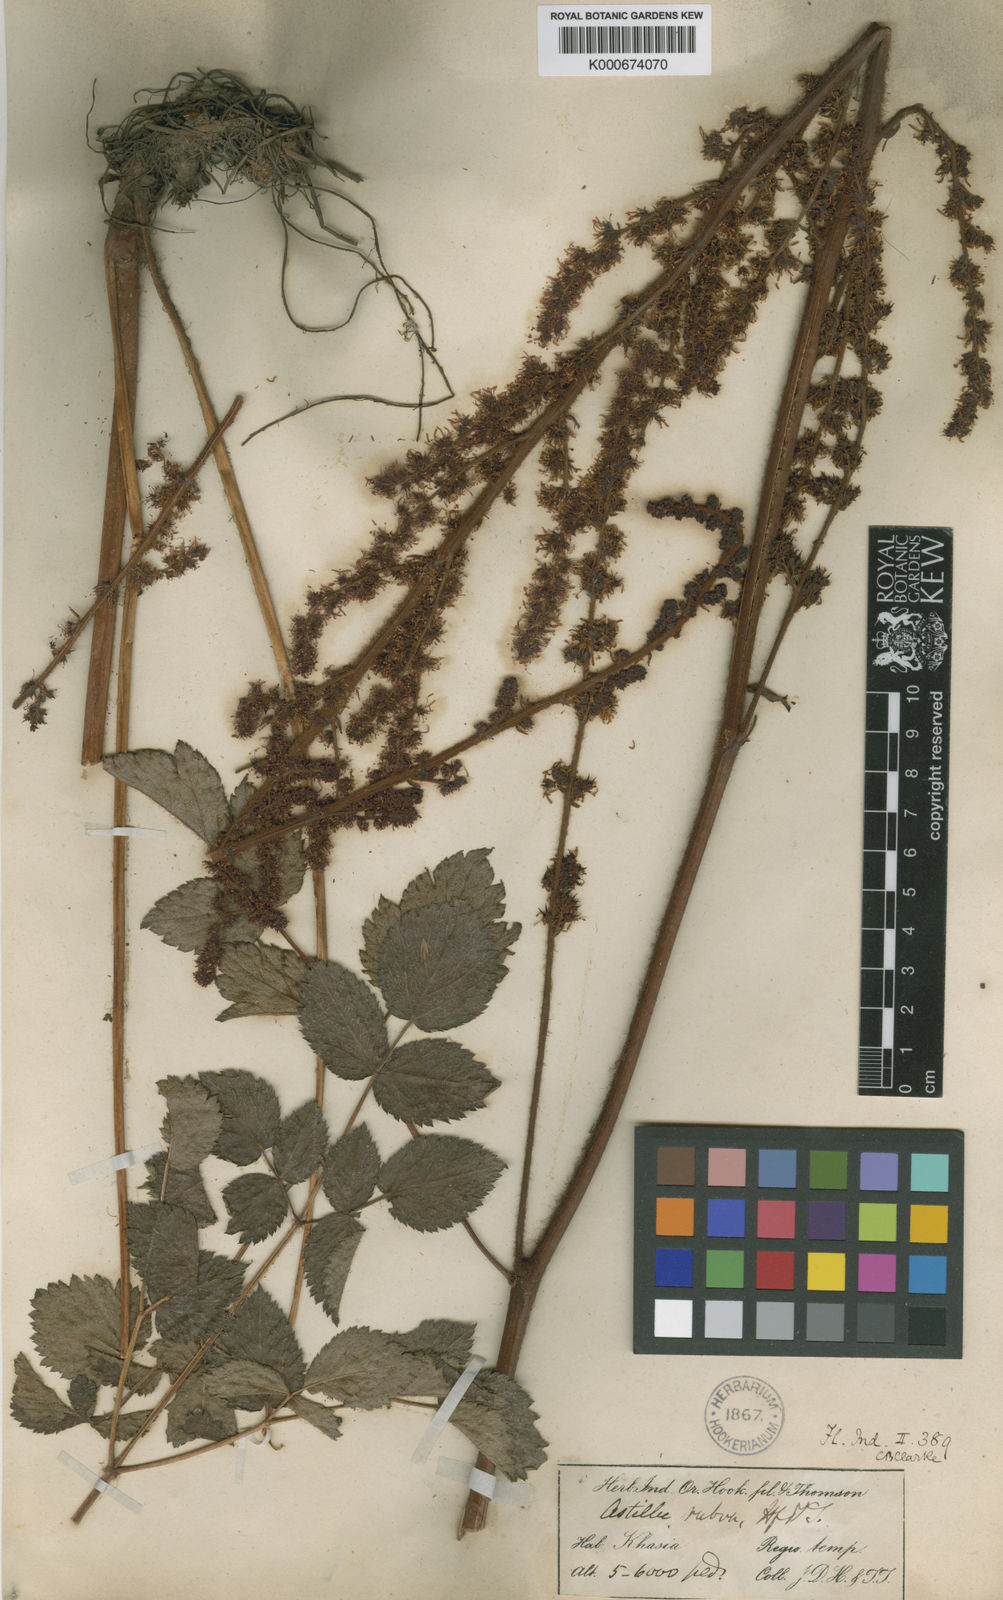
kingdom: Plantae
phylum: Tracheophyta
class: Magnoliopsida
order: Saxifragales
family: Saxifragaceae
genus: Astilbe
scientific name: Astilbe microphylla
